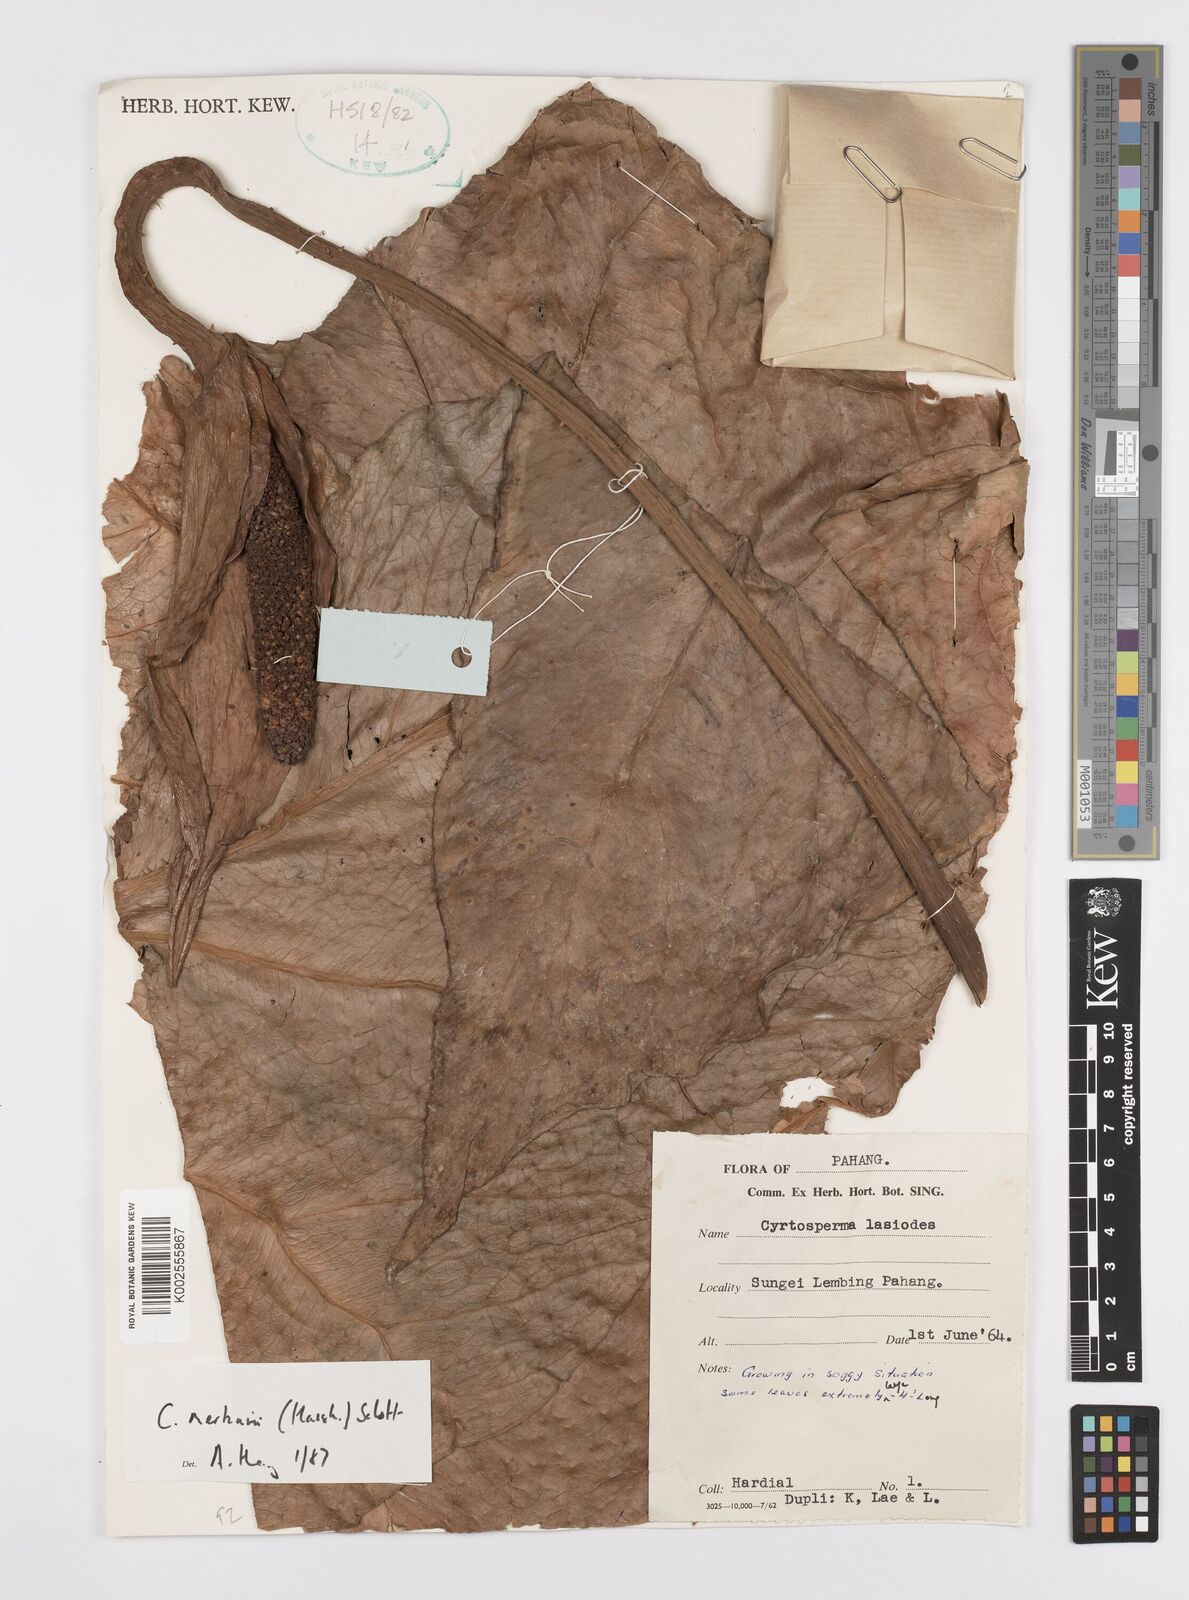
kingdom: Plantae
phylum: Tracheophyta
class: Liliopsida
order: Alismatales
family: Araceae
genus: Cyrtosperma
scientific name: Cyrtosperma merkusii
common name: Giant swamp-taro
